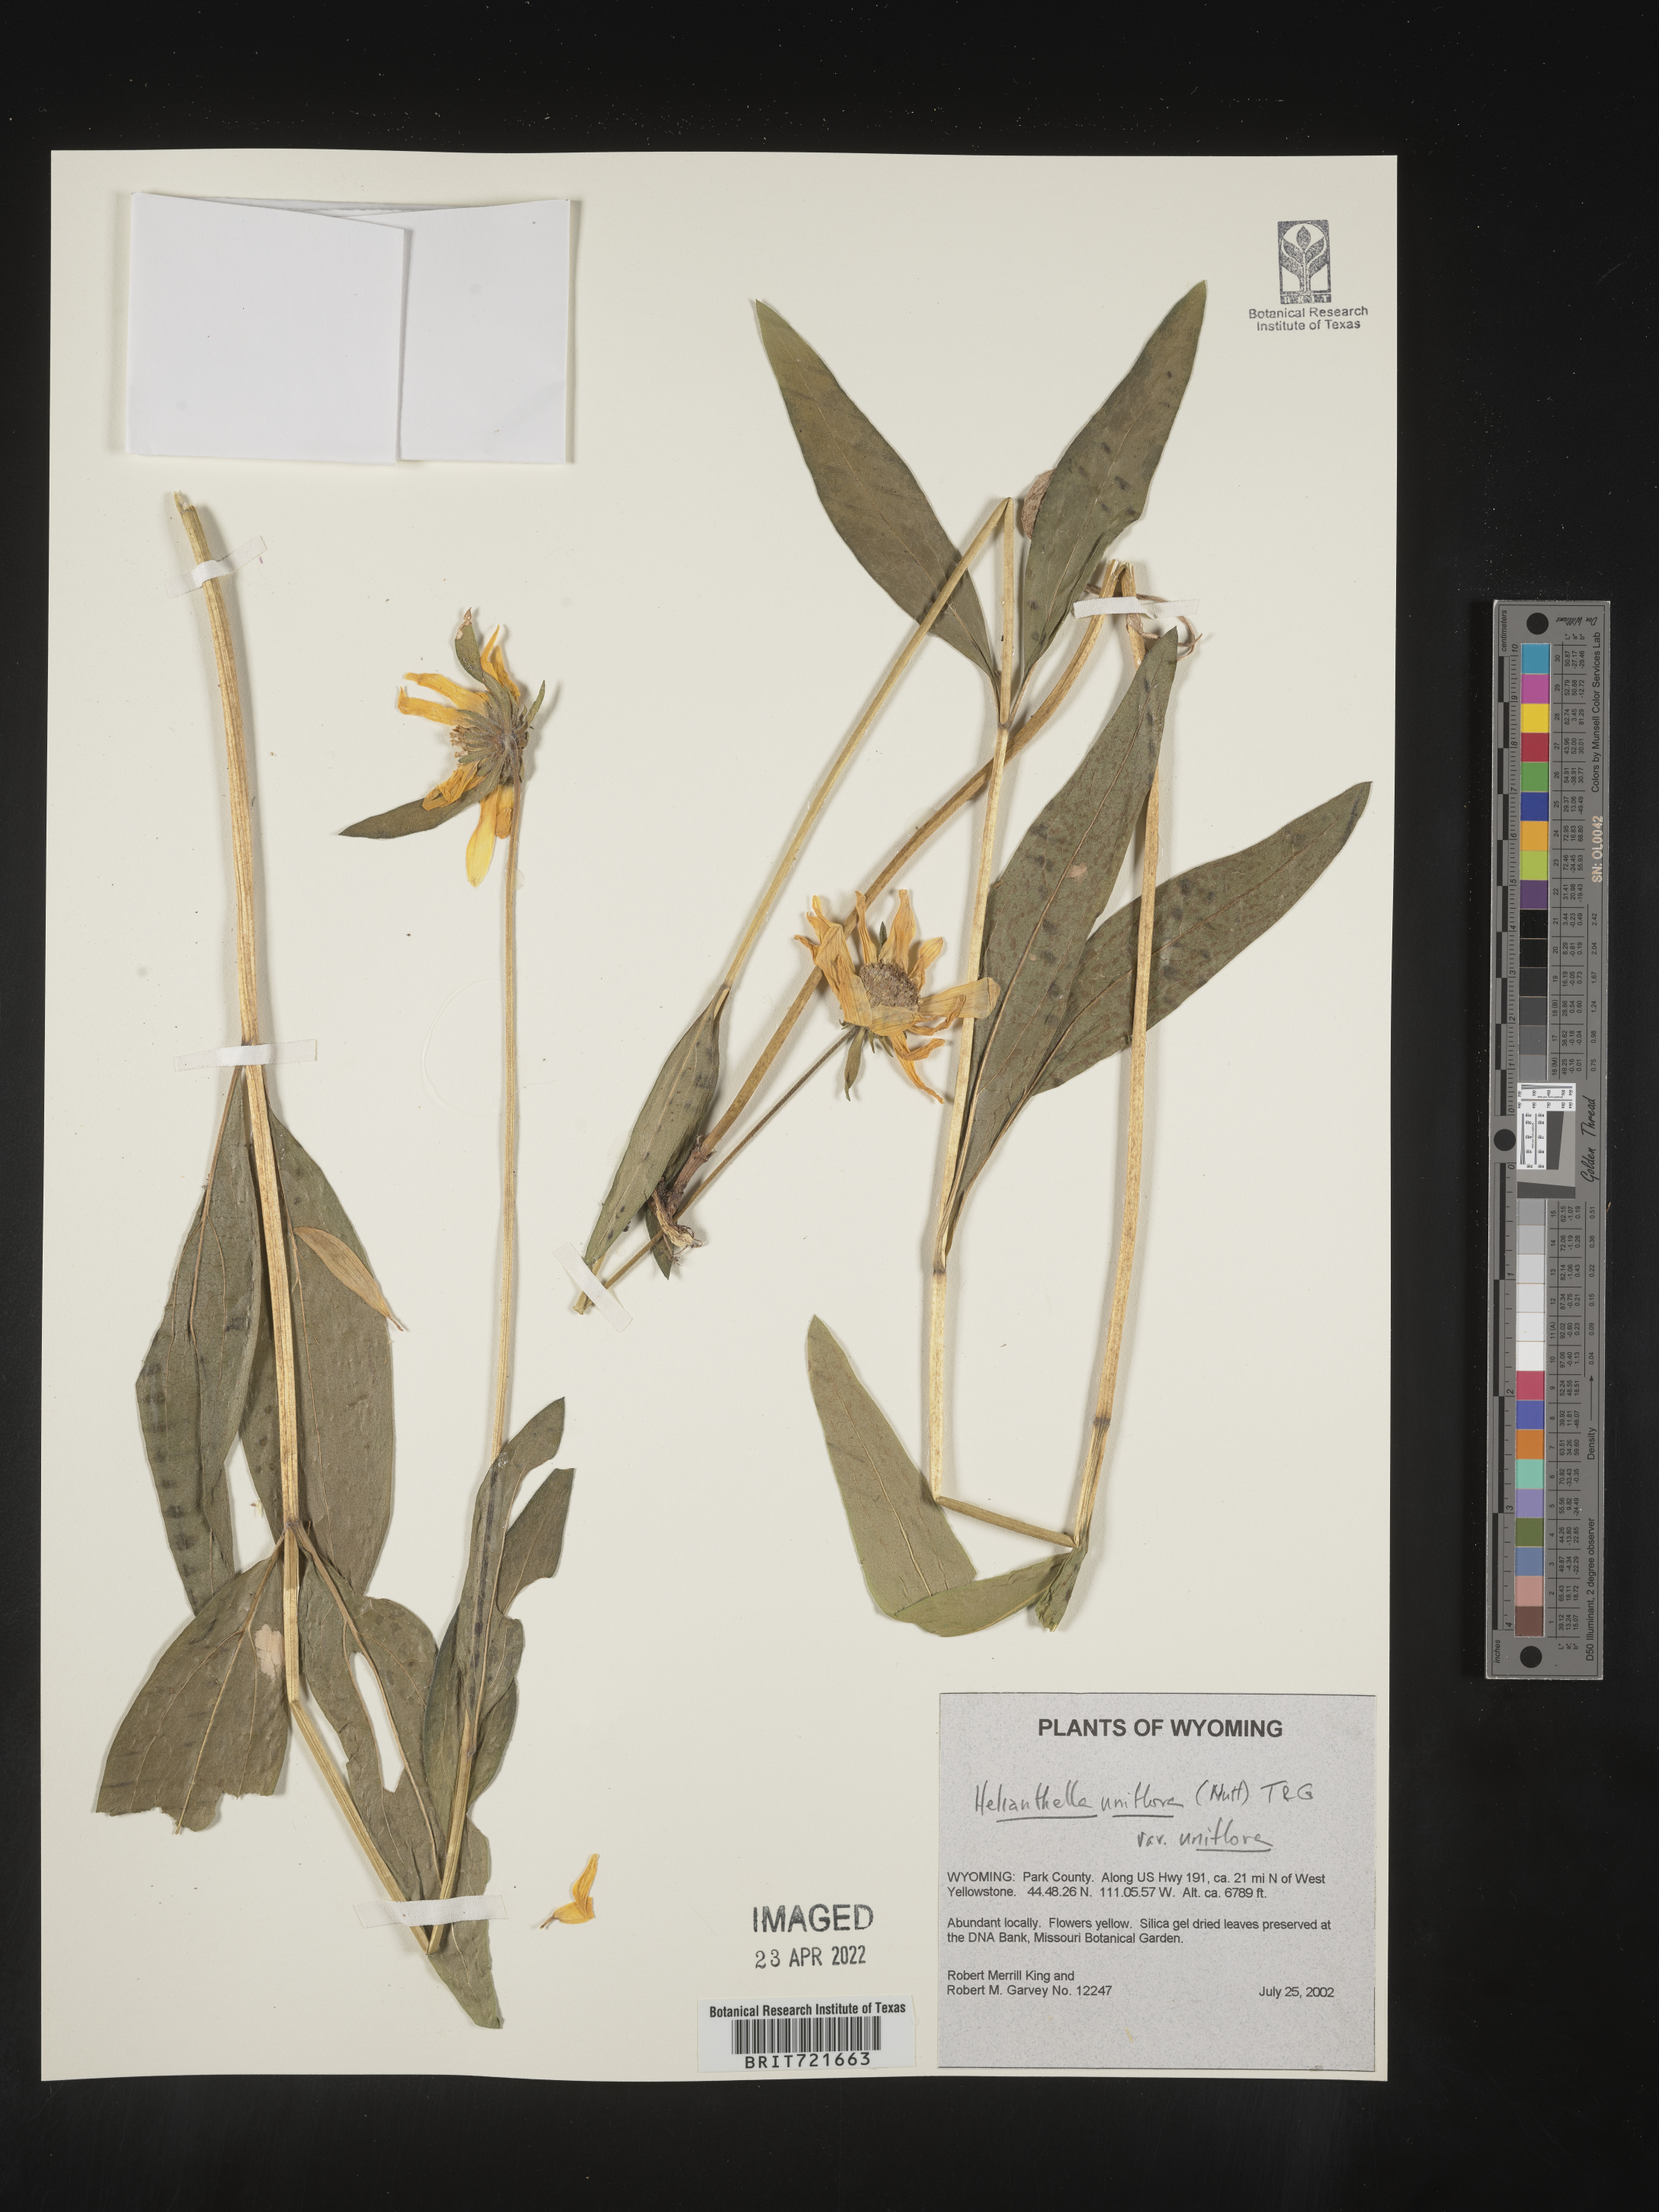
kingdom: Plantae
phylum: Tracheophyta
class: Magnoliopsida
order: Asterales
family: Asteraceae
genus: Helianthella
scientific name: Helianthella uniflora
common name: Rocky mountain dwarf sunflower
